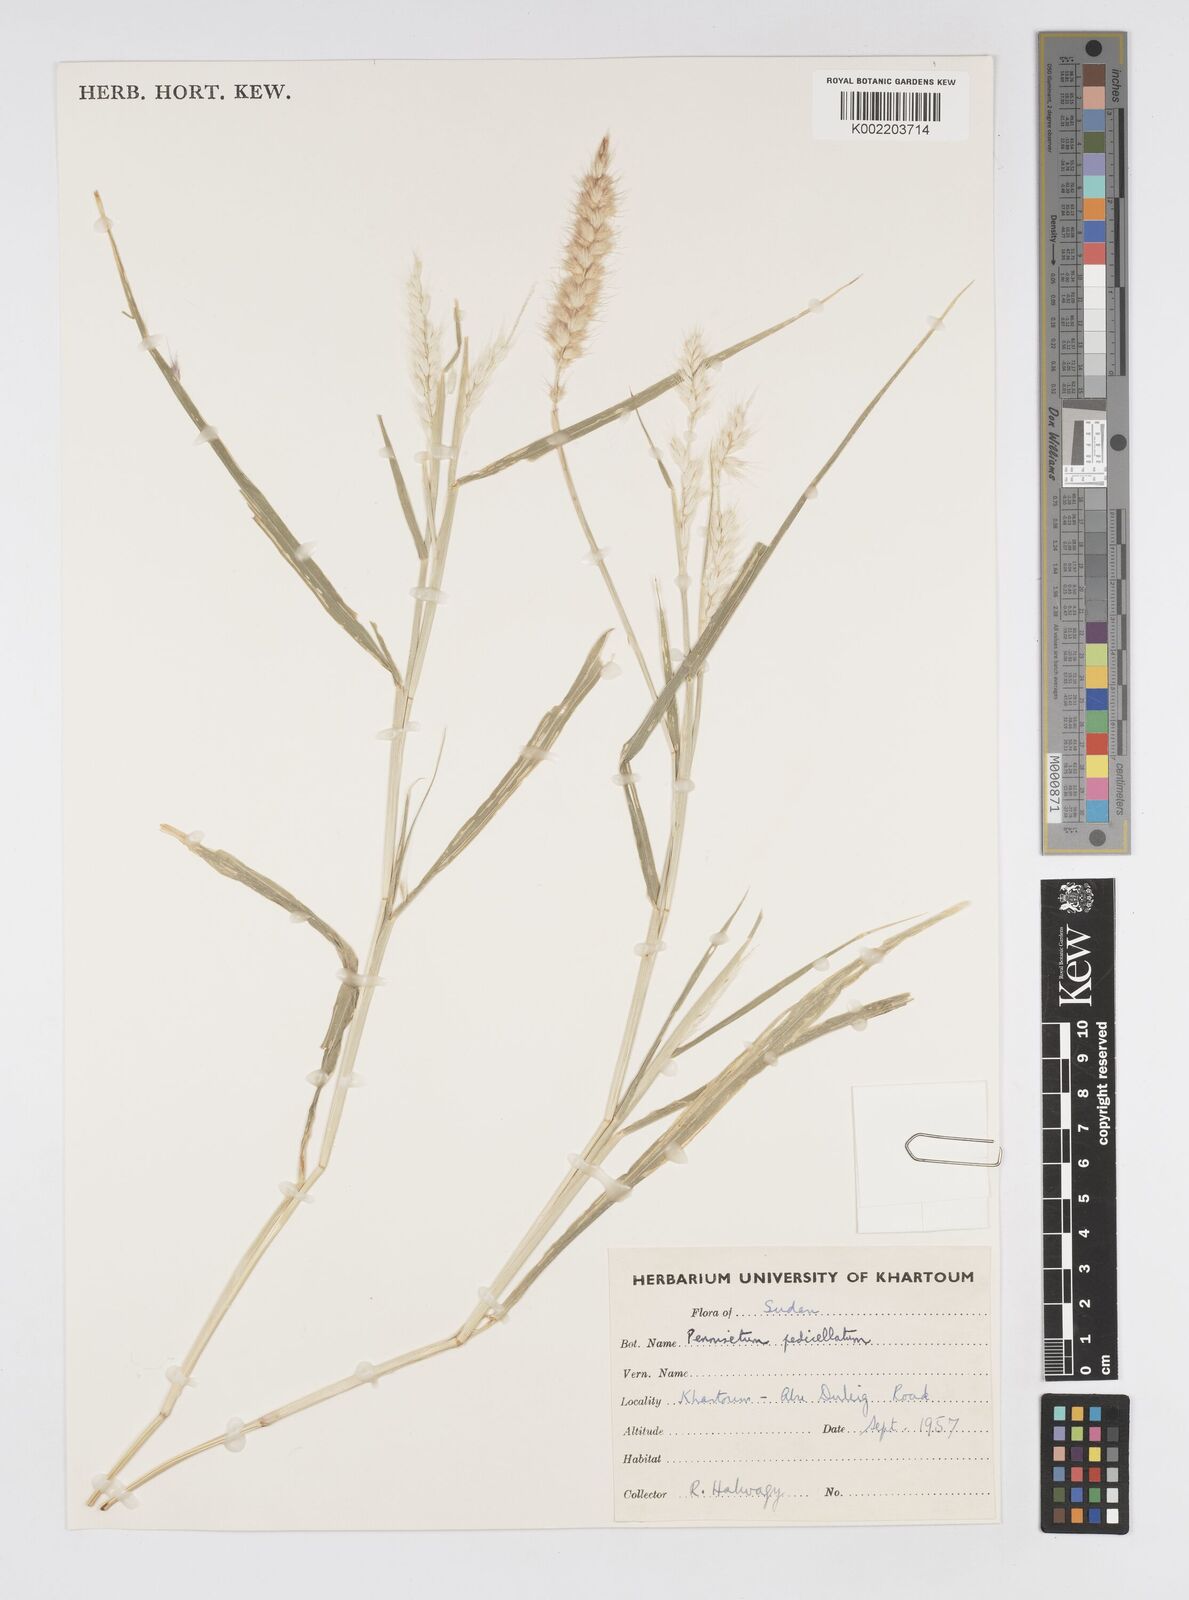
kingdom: Plantae
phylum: Tracheophyta
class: Liliopsida
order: Poales
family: Poaceae
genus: Cenchrus
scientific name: Cenchrus pedicellatus
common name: Hairy fountain grass
